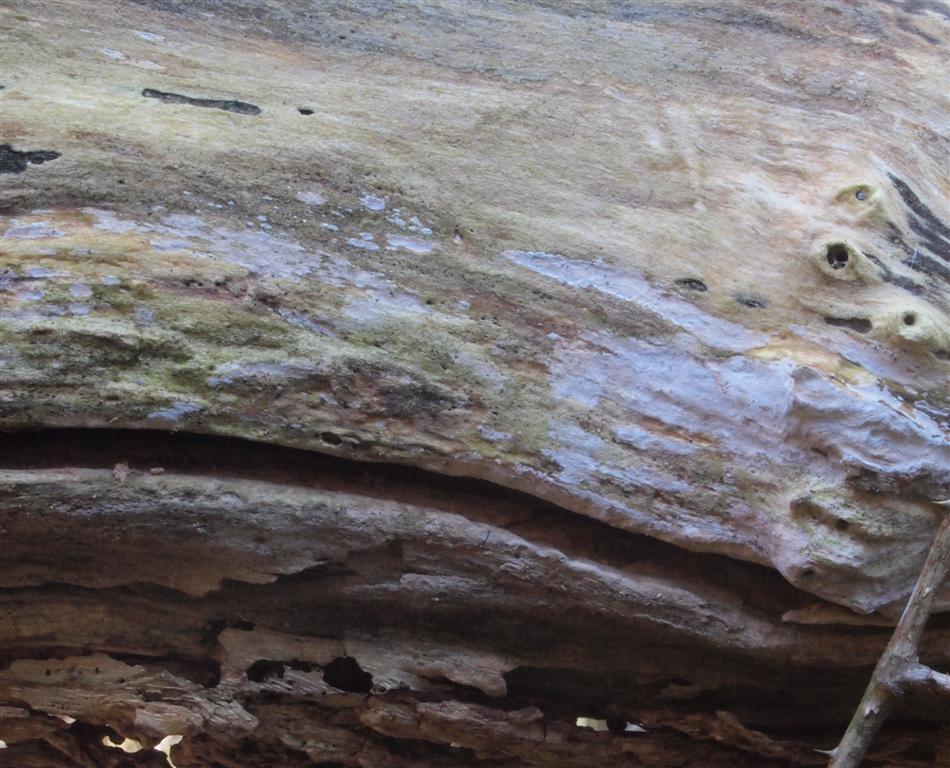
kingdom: Fungi
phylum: Basidiomycota
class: Agaricomycetes
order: Corticiales
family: Corticiaceae
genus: Lyomyces
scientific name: Lyomyces sambuci
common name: almindelig hyldehinde
